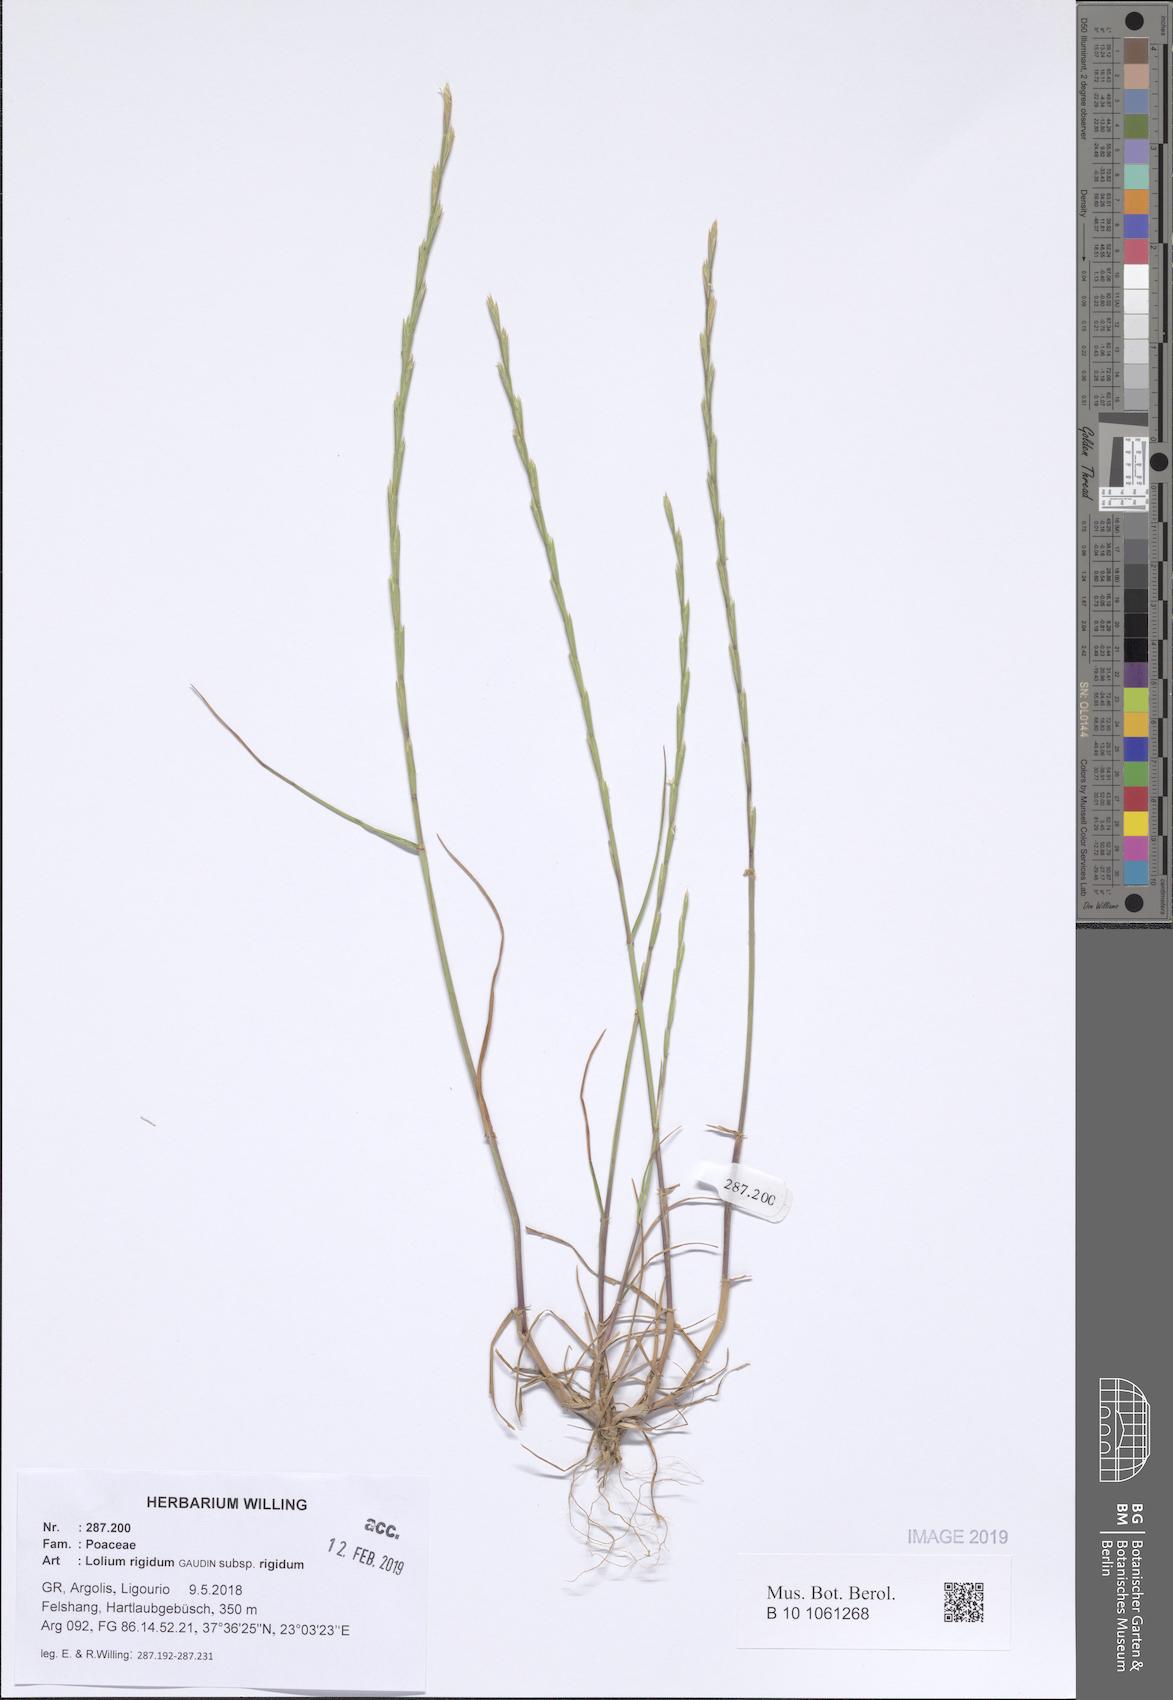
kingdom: Plantae
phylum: Tracheophyta
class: Liliopsida
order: Poales
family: Poaceae
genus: Lolium
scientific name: Lolium rigidum
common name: Wimmera ryegrass
